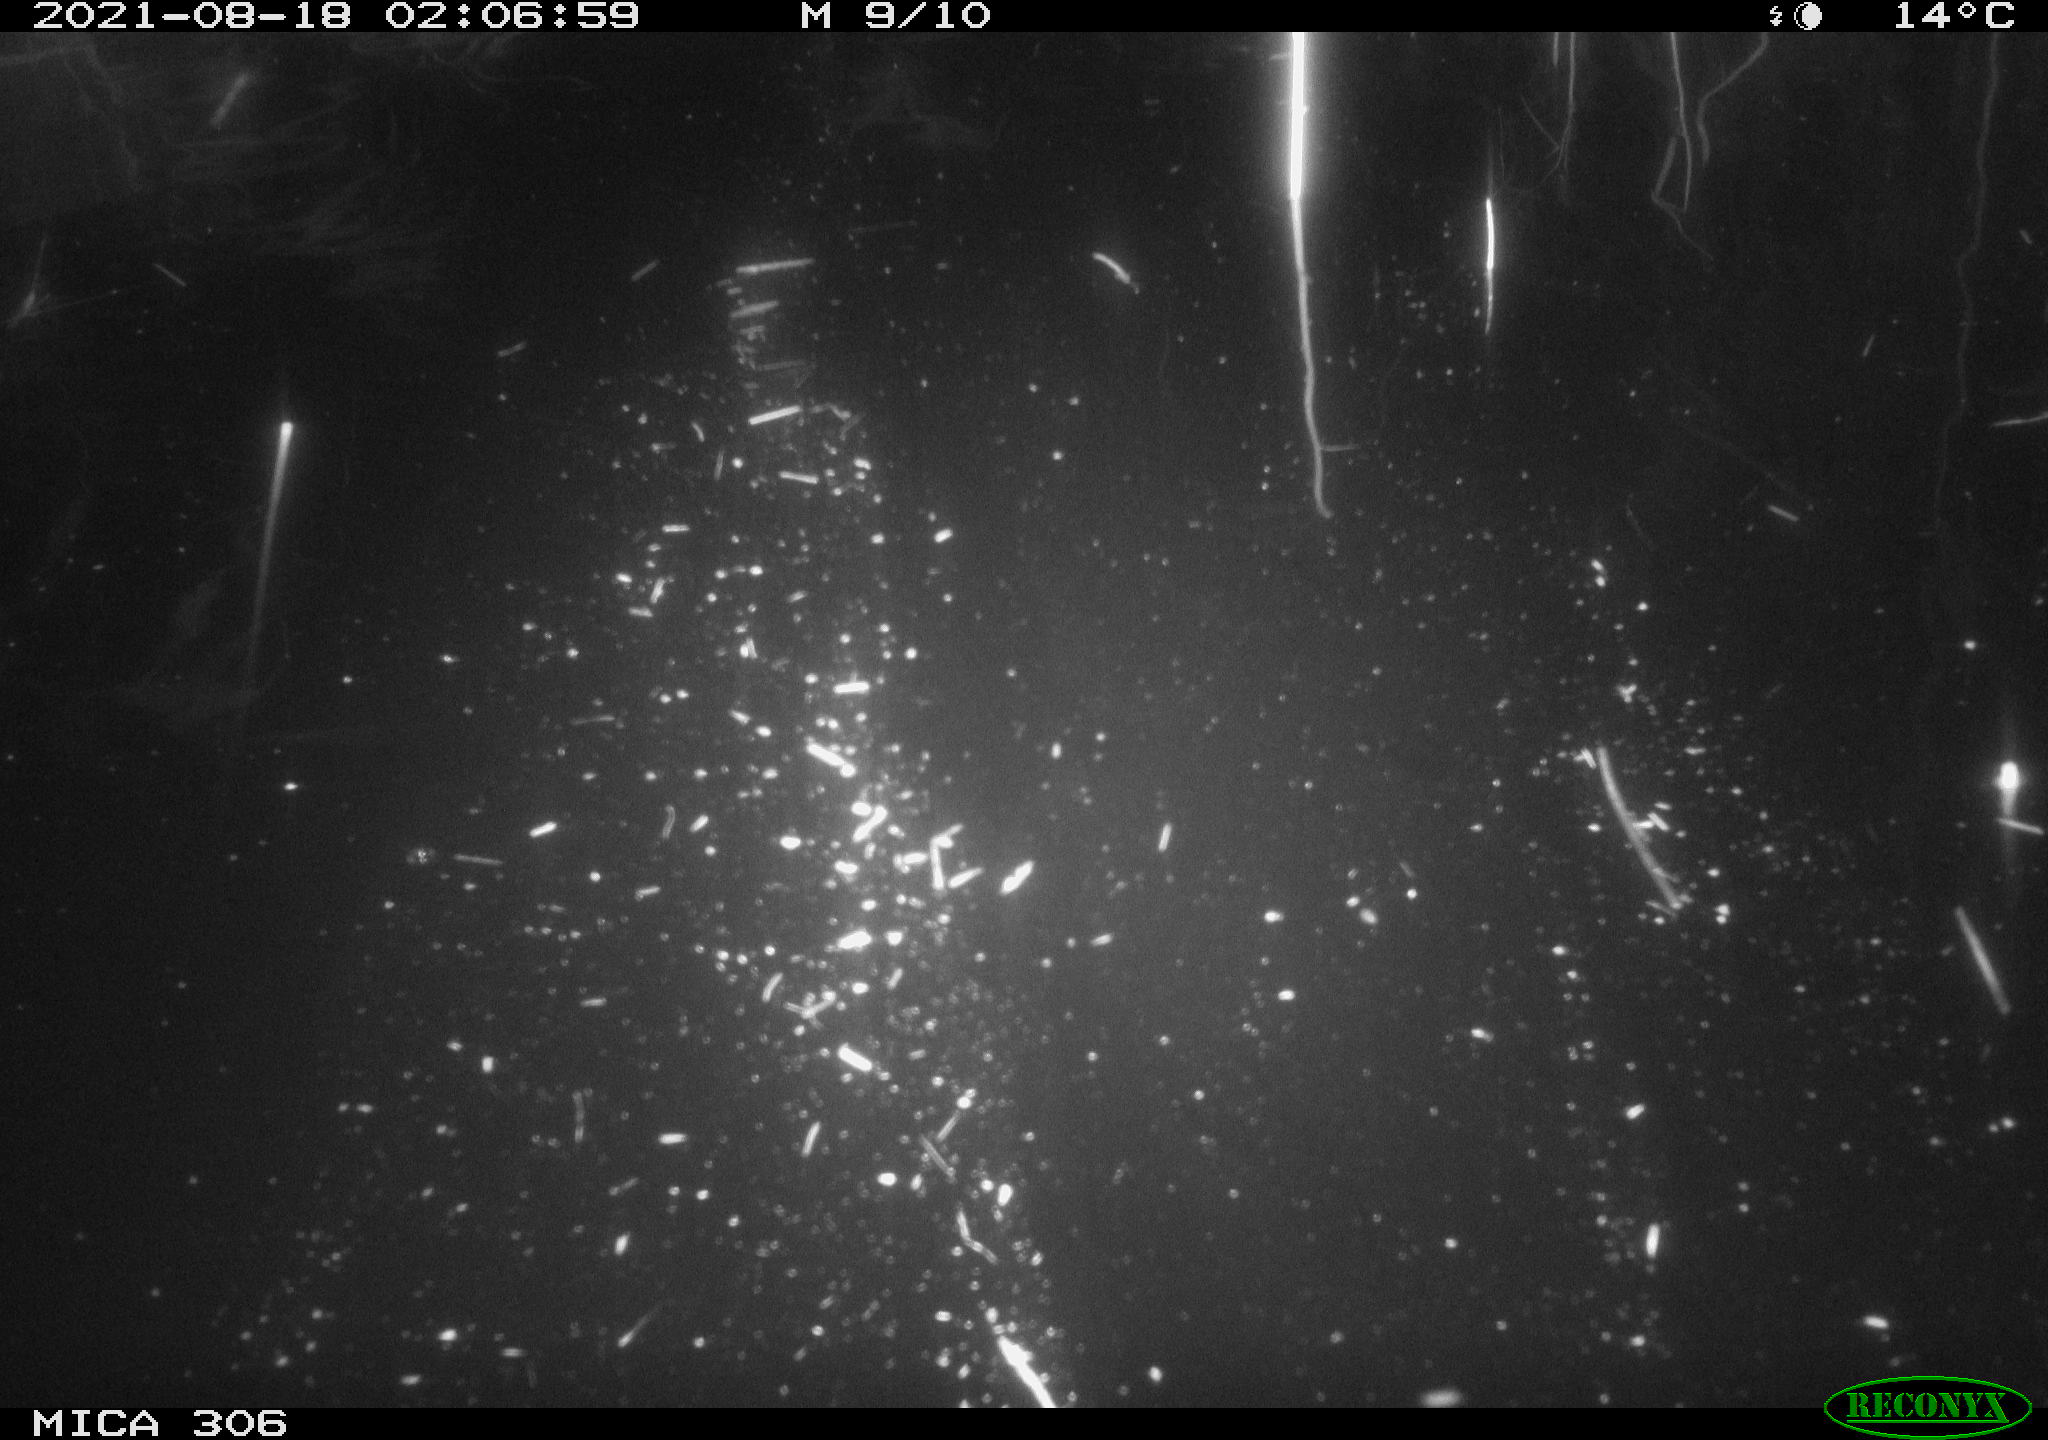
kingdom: Animalia
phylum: Chordata
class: Mammalia
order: Rodentia
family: Muridae
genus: Rattus
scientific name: Rattus norvegicus
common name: Brown rat
